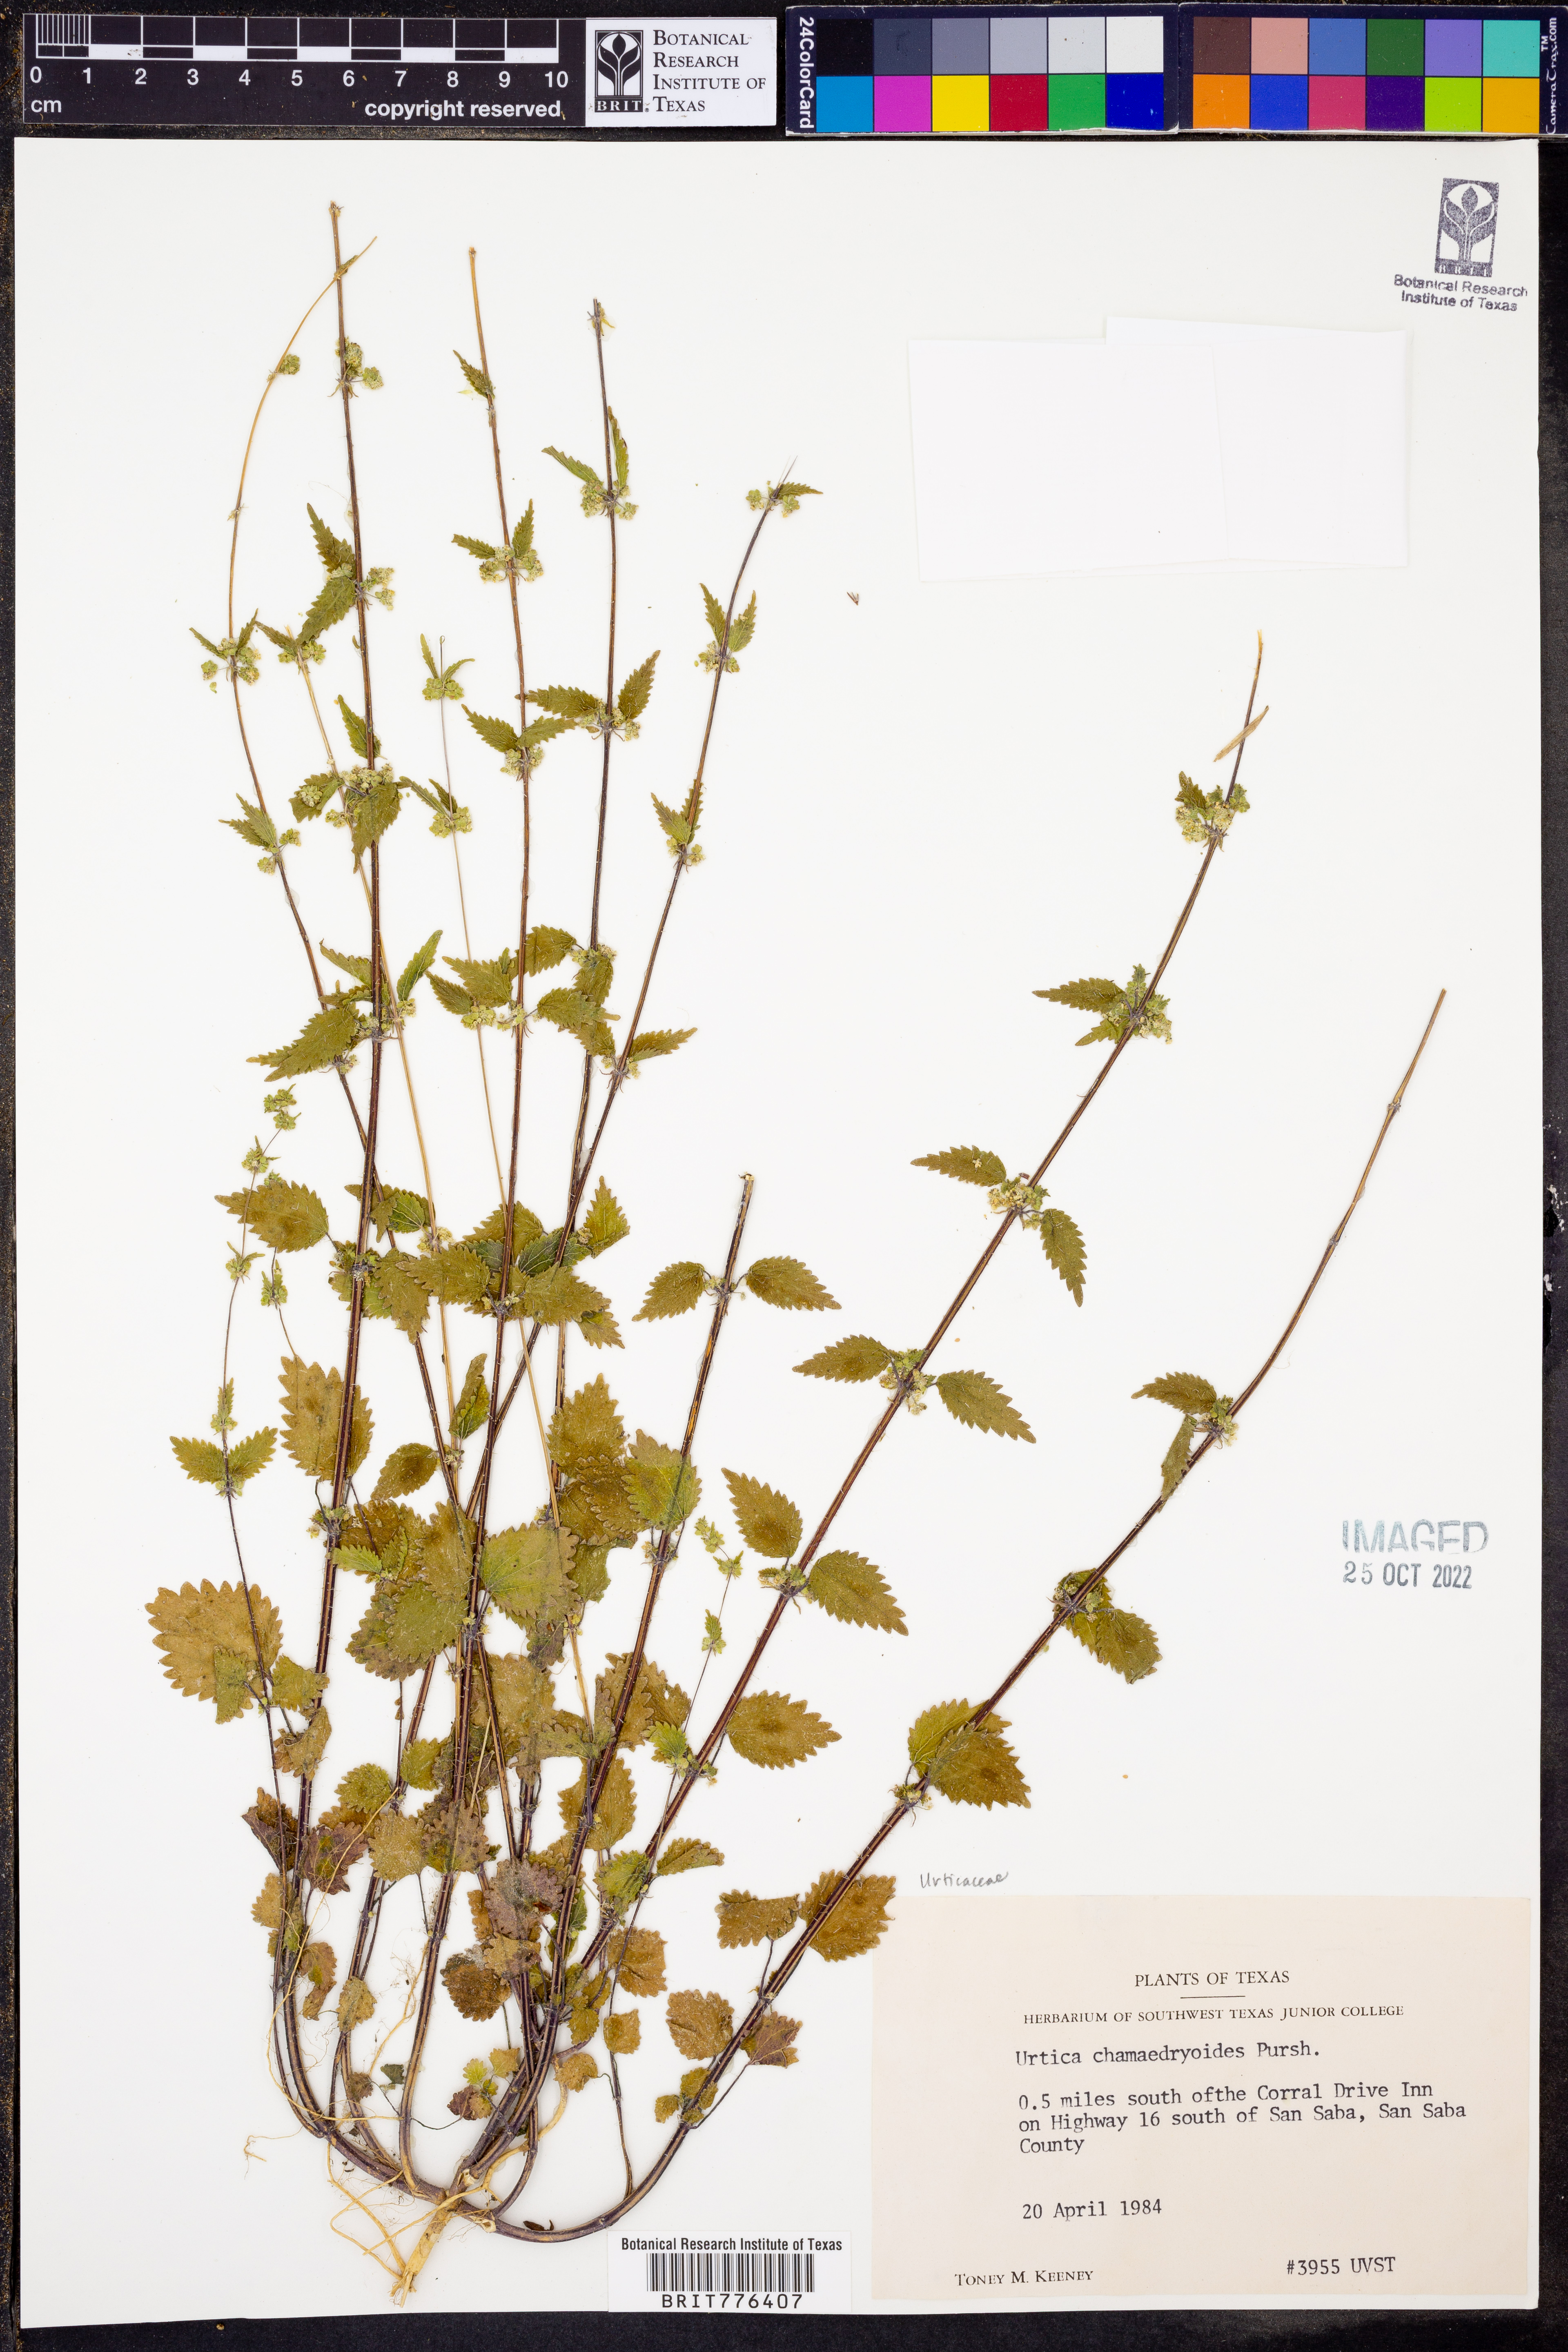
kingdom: Plantae
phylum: Tracheophyta
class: Magnoliopsida
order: Rosales
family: Urticaceae
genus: Urtica
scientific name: Urtica chamaedryoides
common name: Heart-leaf nettle
